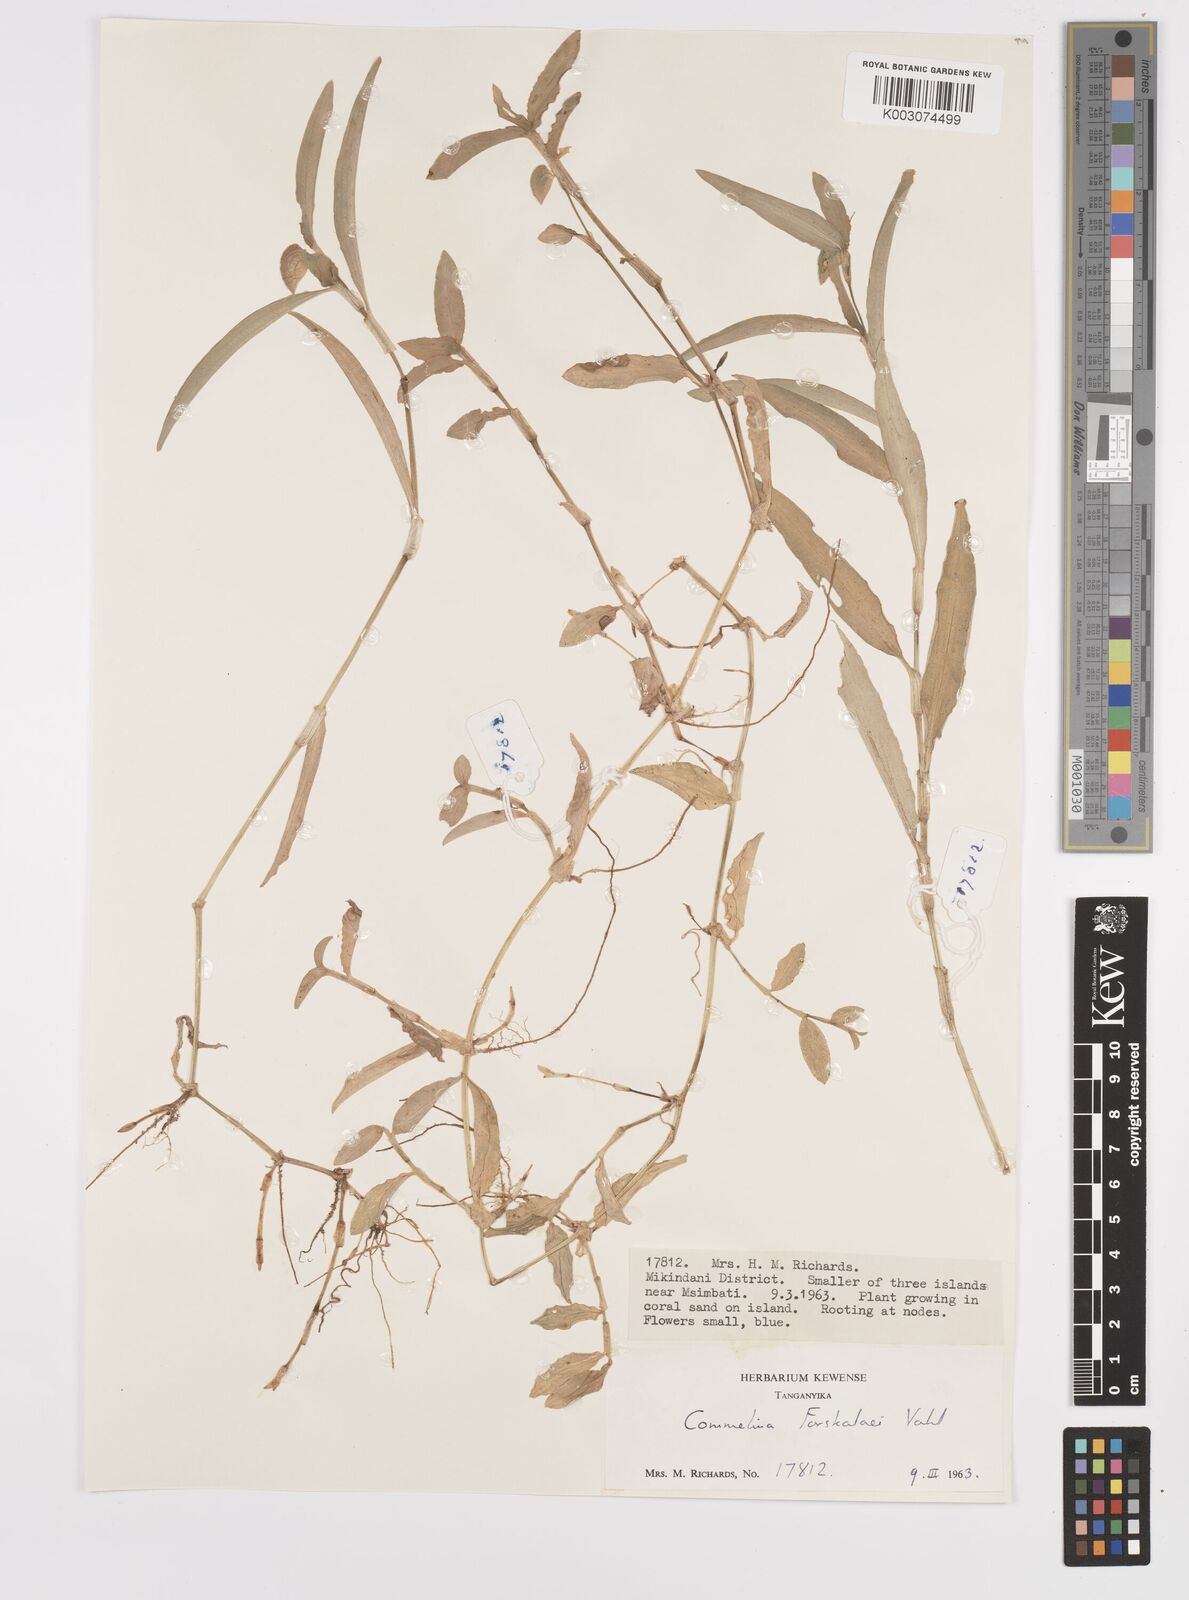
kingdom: Plantae
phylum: Tracheophyta
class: Liliopsida
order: Commelinales
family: Commelinaceae
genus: Commelina
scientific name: Commelina
